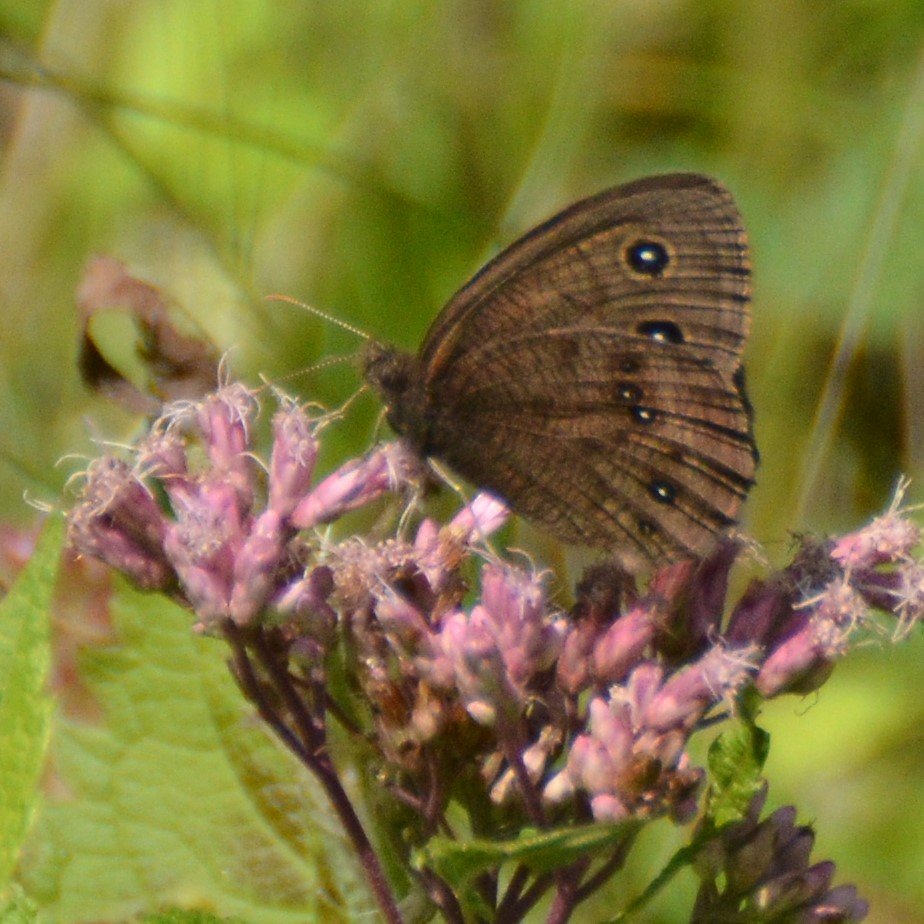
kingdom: Animalia
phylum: Arthropoda
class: Insecta
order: Lepidoptera
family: Nymphalidae
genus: Cercyonis
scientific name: Cercyonis pegala
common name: Common Wood-Nymph
